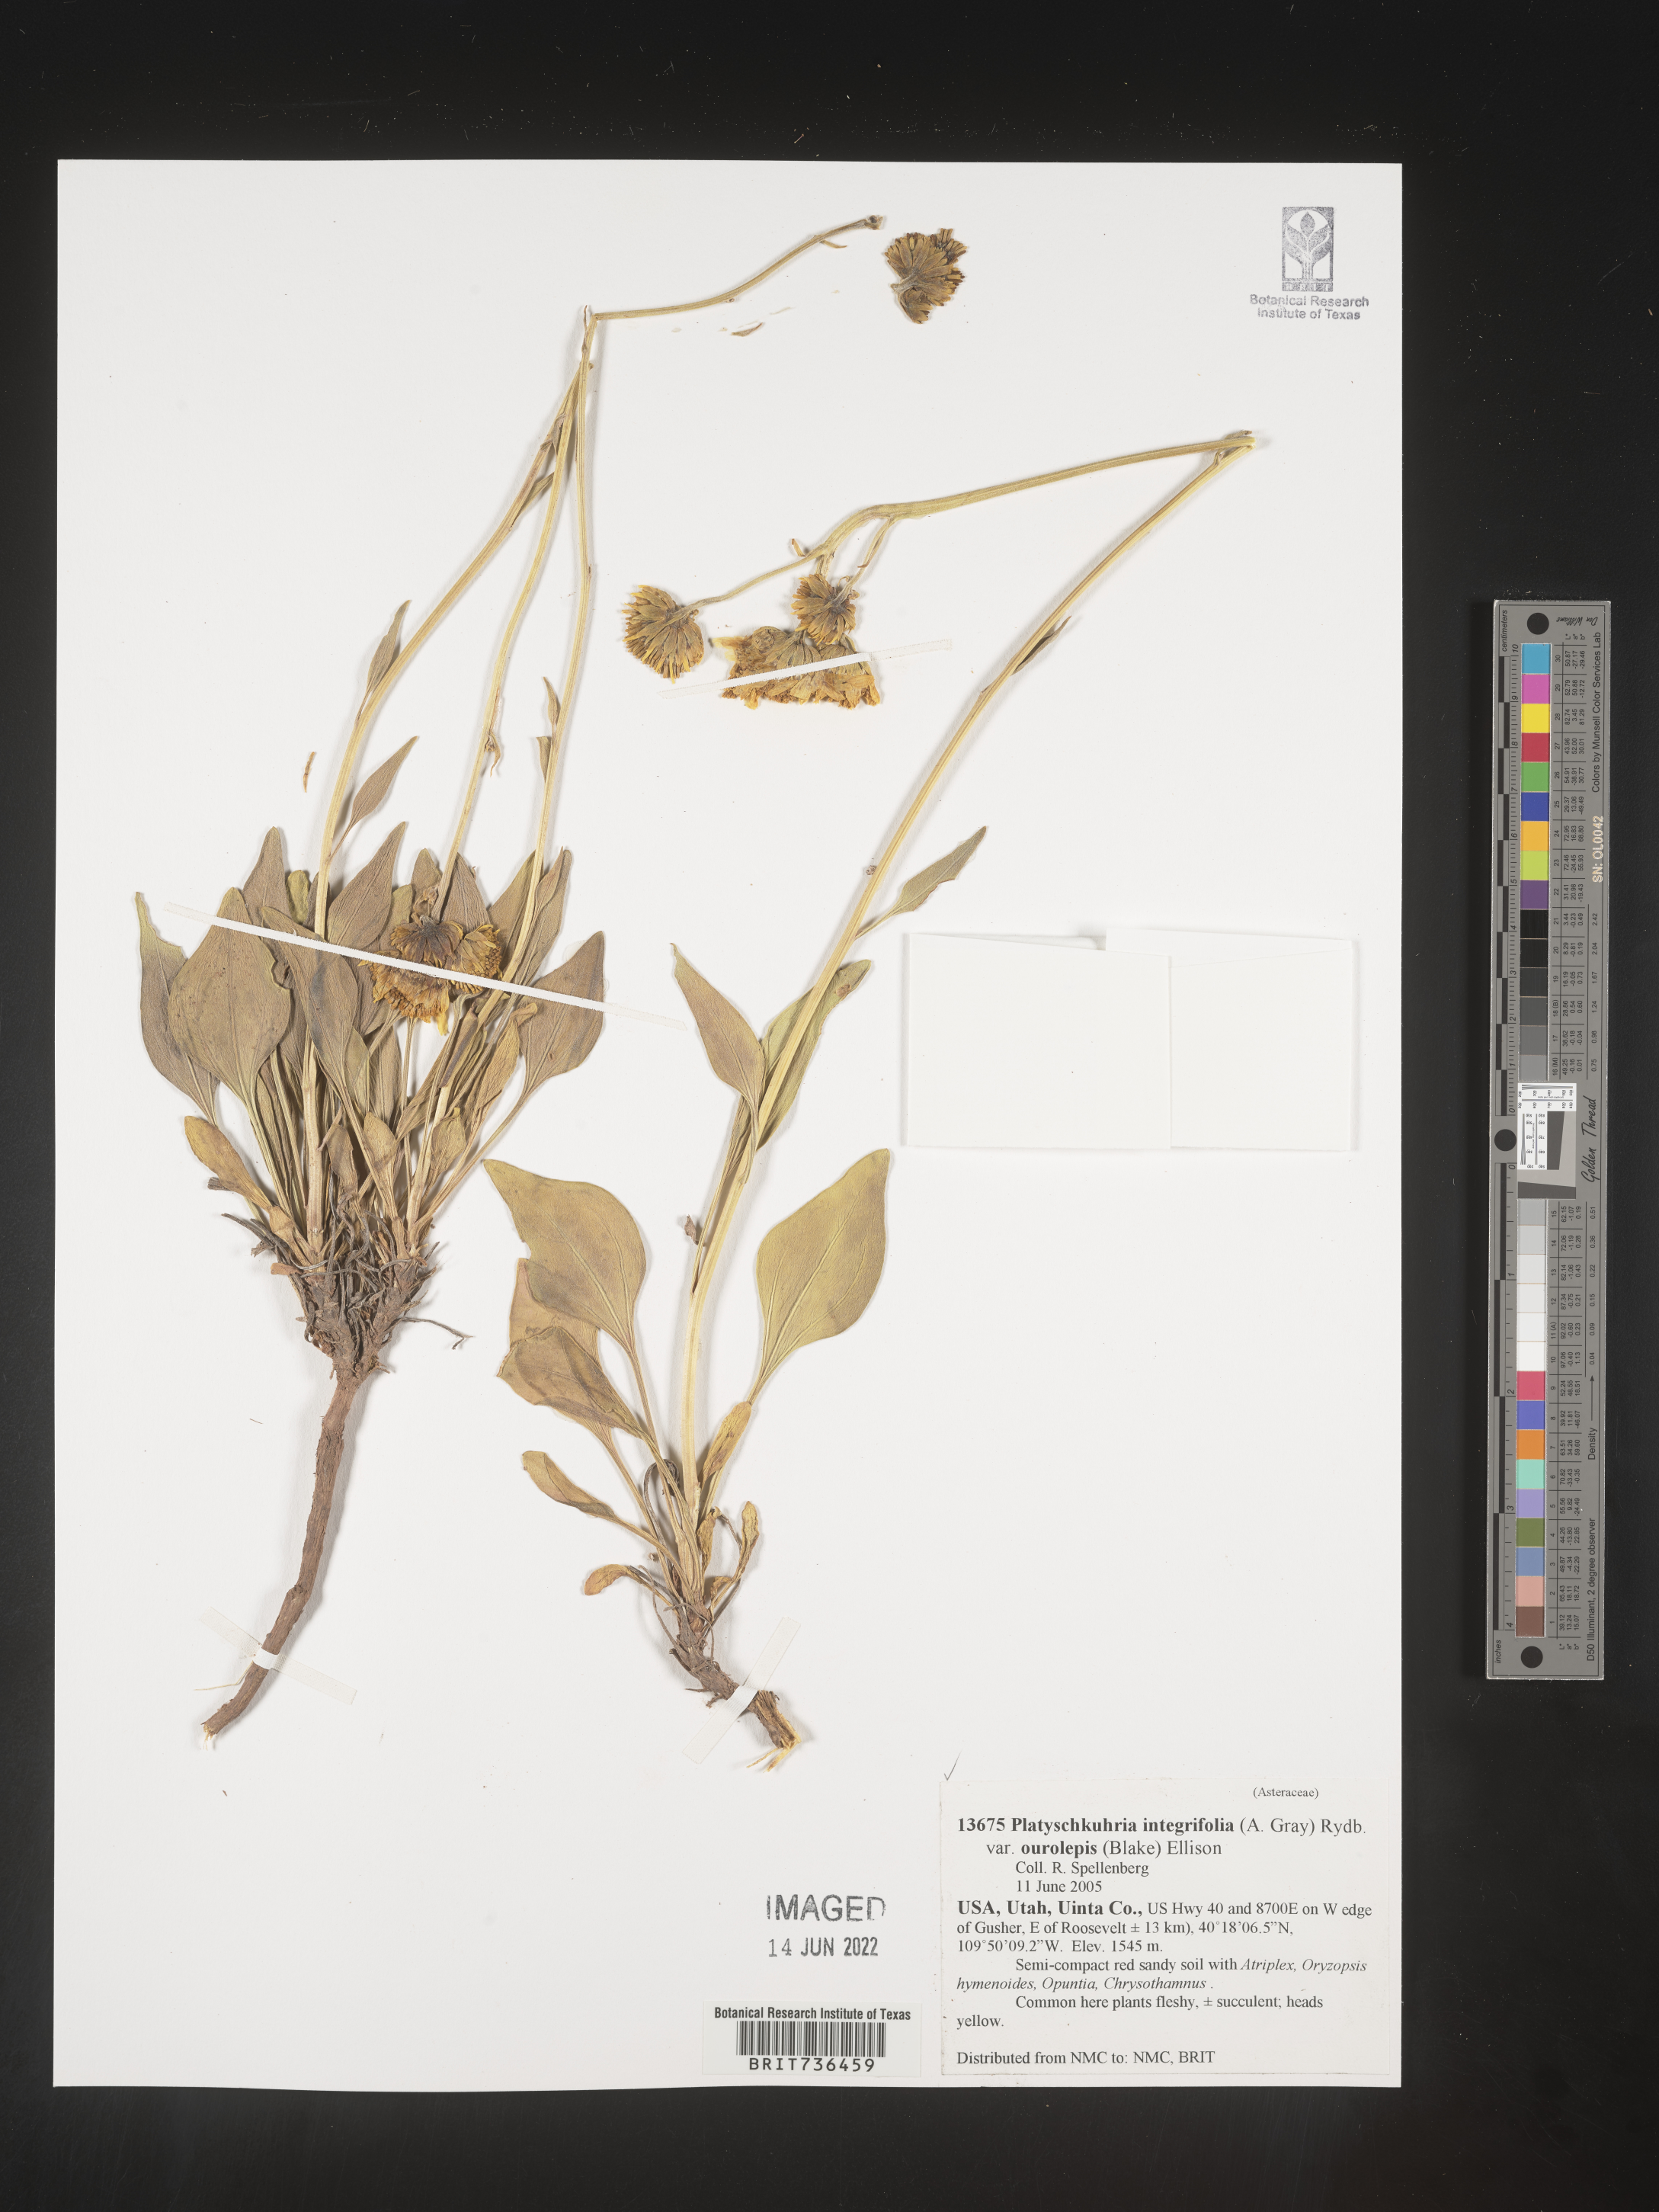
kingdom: Plantae
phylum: Tracheophyta
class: Magnoliopsida
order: Asterales
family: Asteraceae
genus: Platyschkuhria
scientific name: Platyschkuhria
